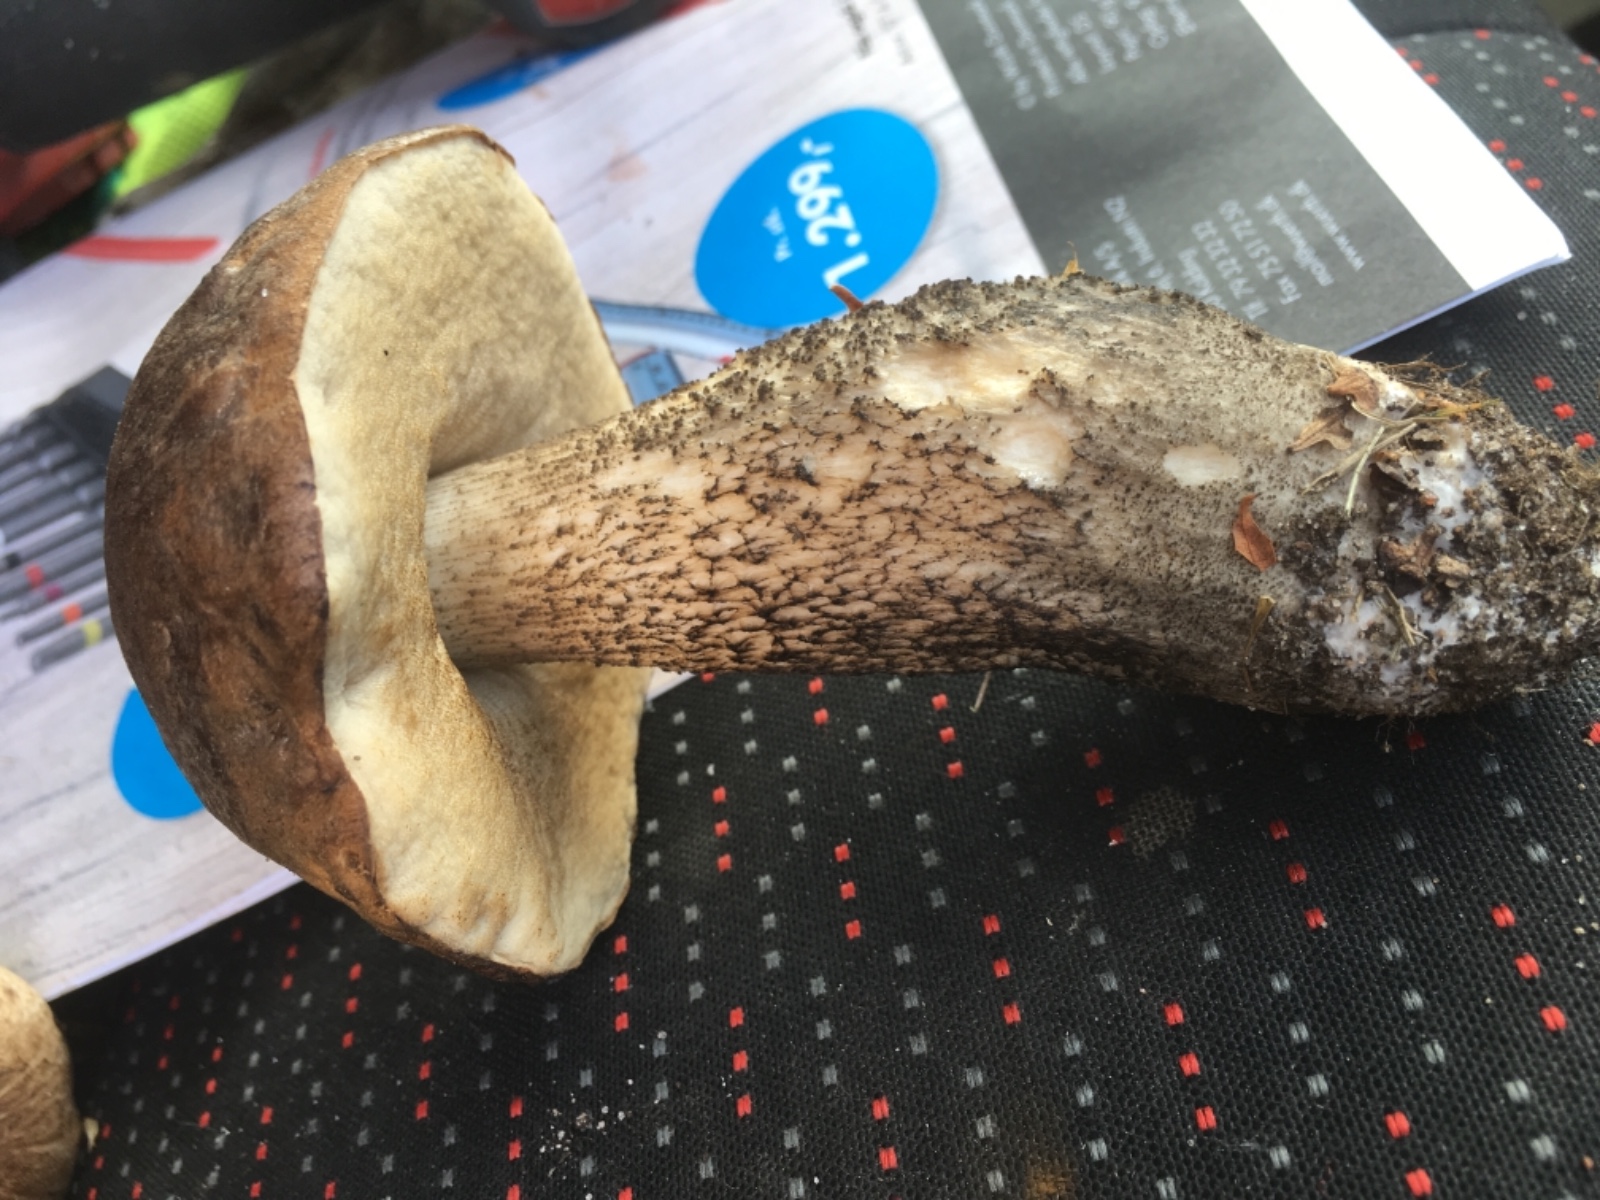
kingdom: Fungi
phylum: Basidiomycota
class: Agaricomycetes
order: Boletales
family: Boletaceae
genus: Leccinum
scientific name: Leccinum scabrum
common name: brun skælrørhat
